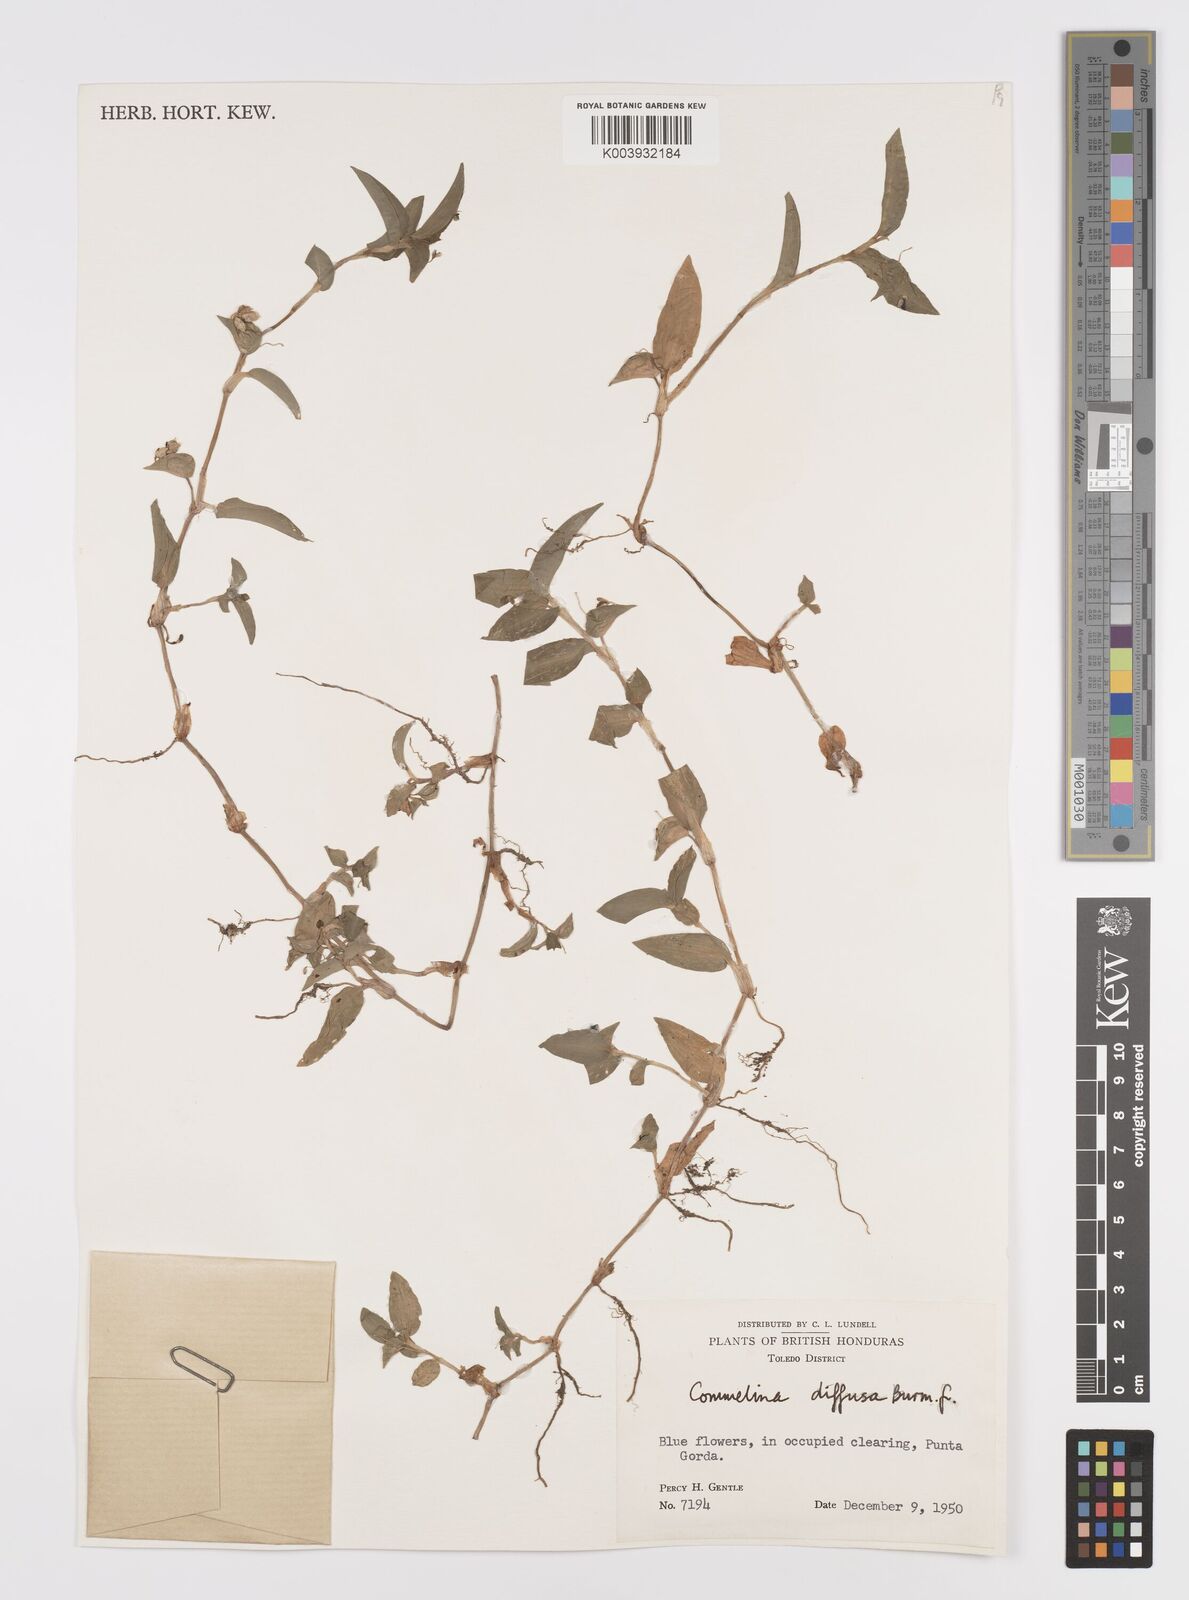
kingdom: Plantae
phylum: Tracheophyta
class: Liliopsida
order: Commelinales
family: Commelinaceae
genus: Commelina
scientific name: Commelina diffusa
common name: Climbing dayflower
